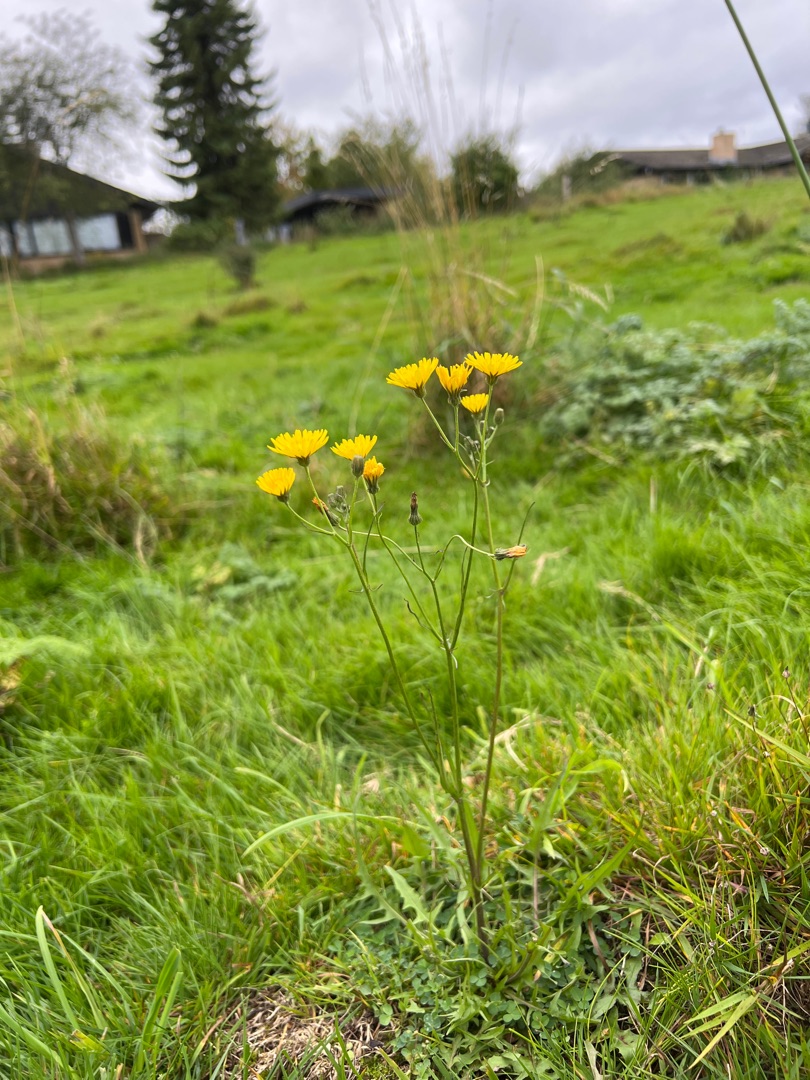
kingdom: Plantae
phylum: Tracheophyta
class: Magnoliopsida
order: Asterales
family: Asteraceae
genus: Crepis
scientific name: Crepis capillaris
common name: Grøn høgeskæg
